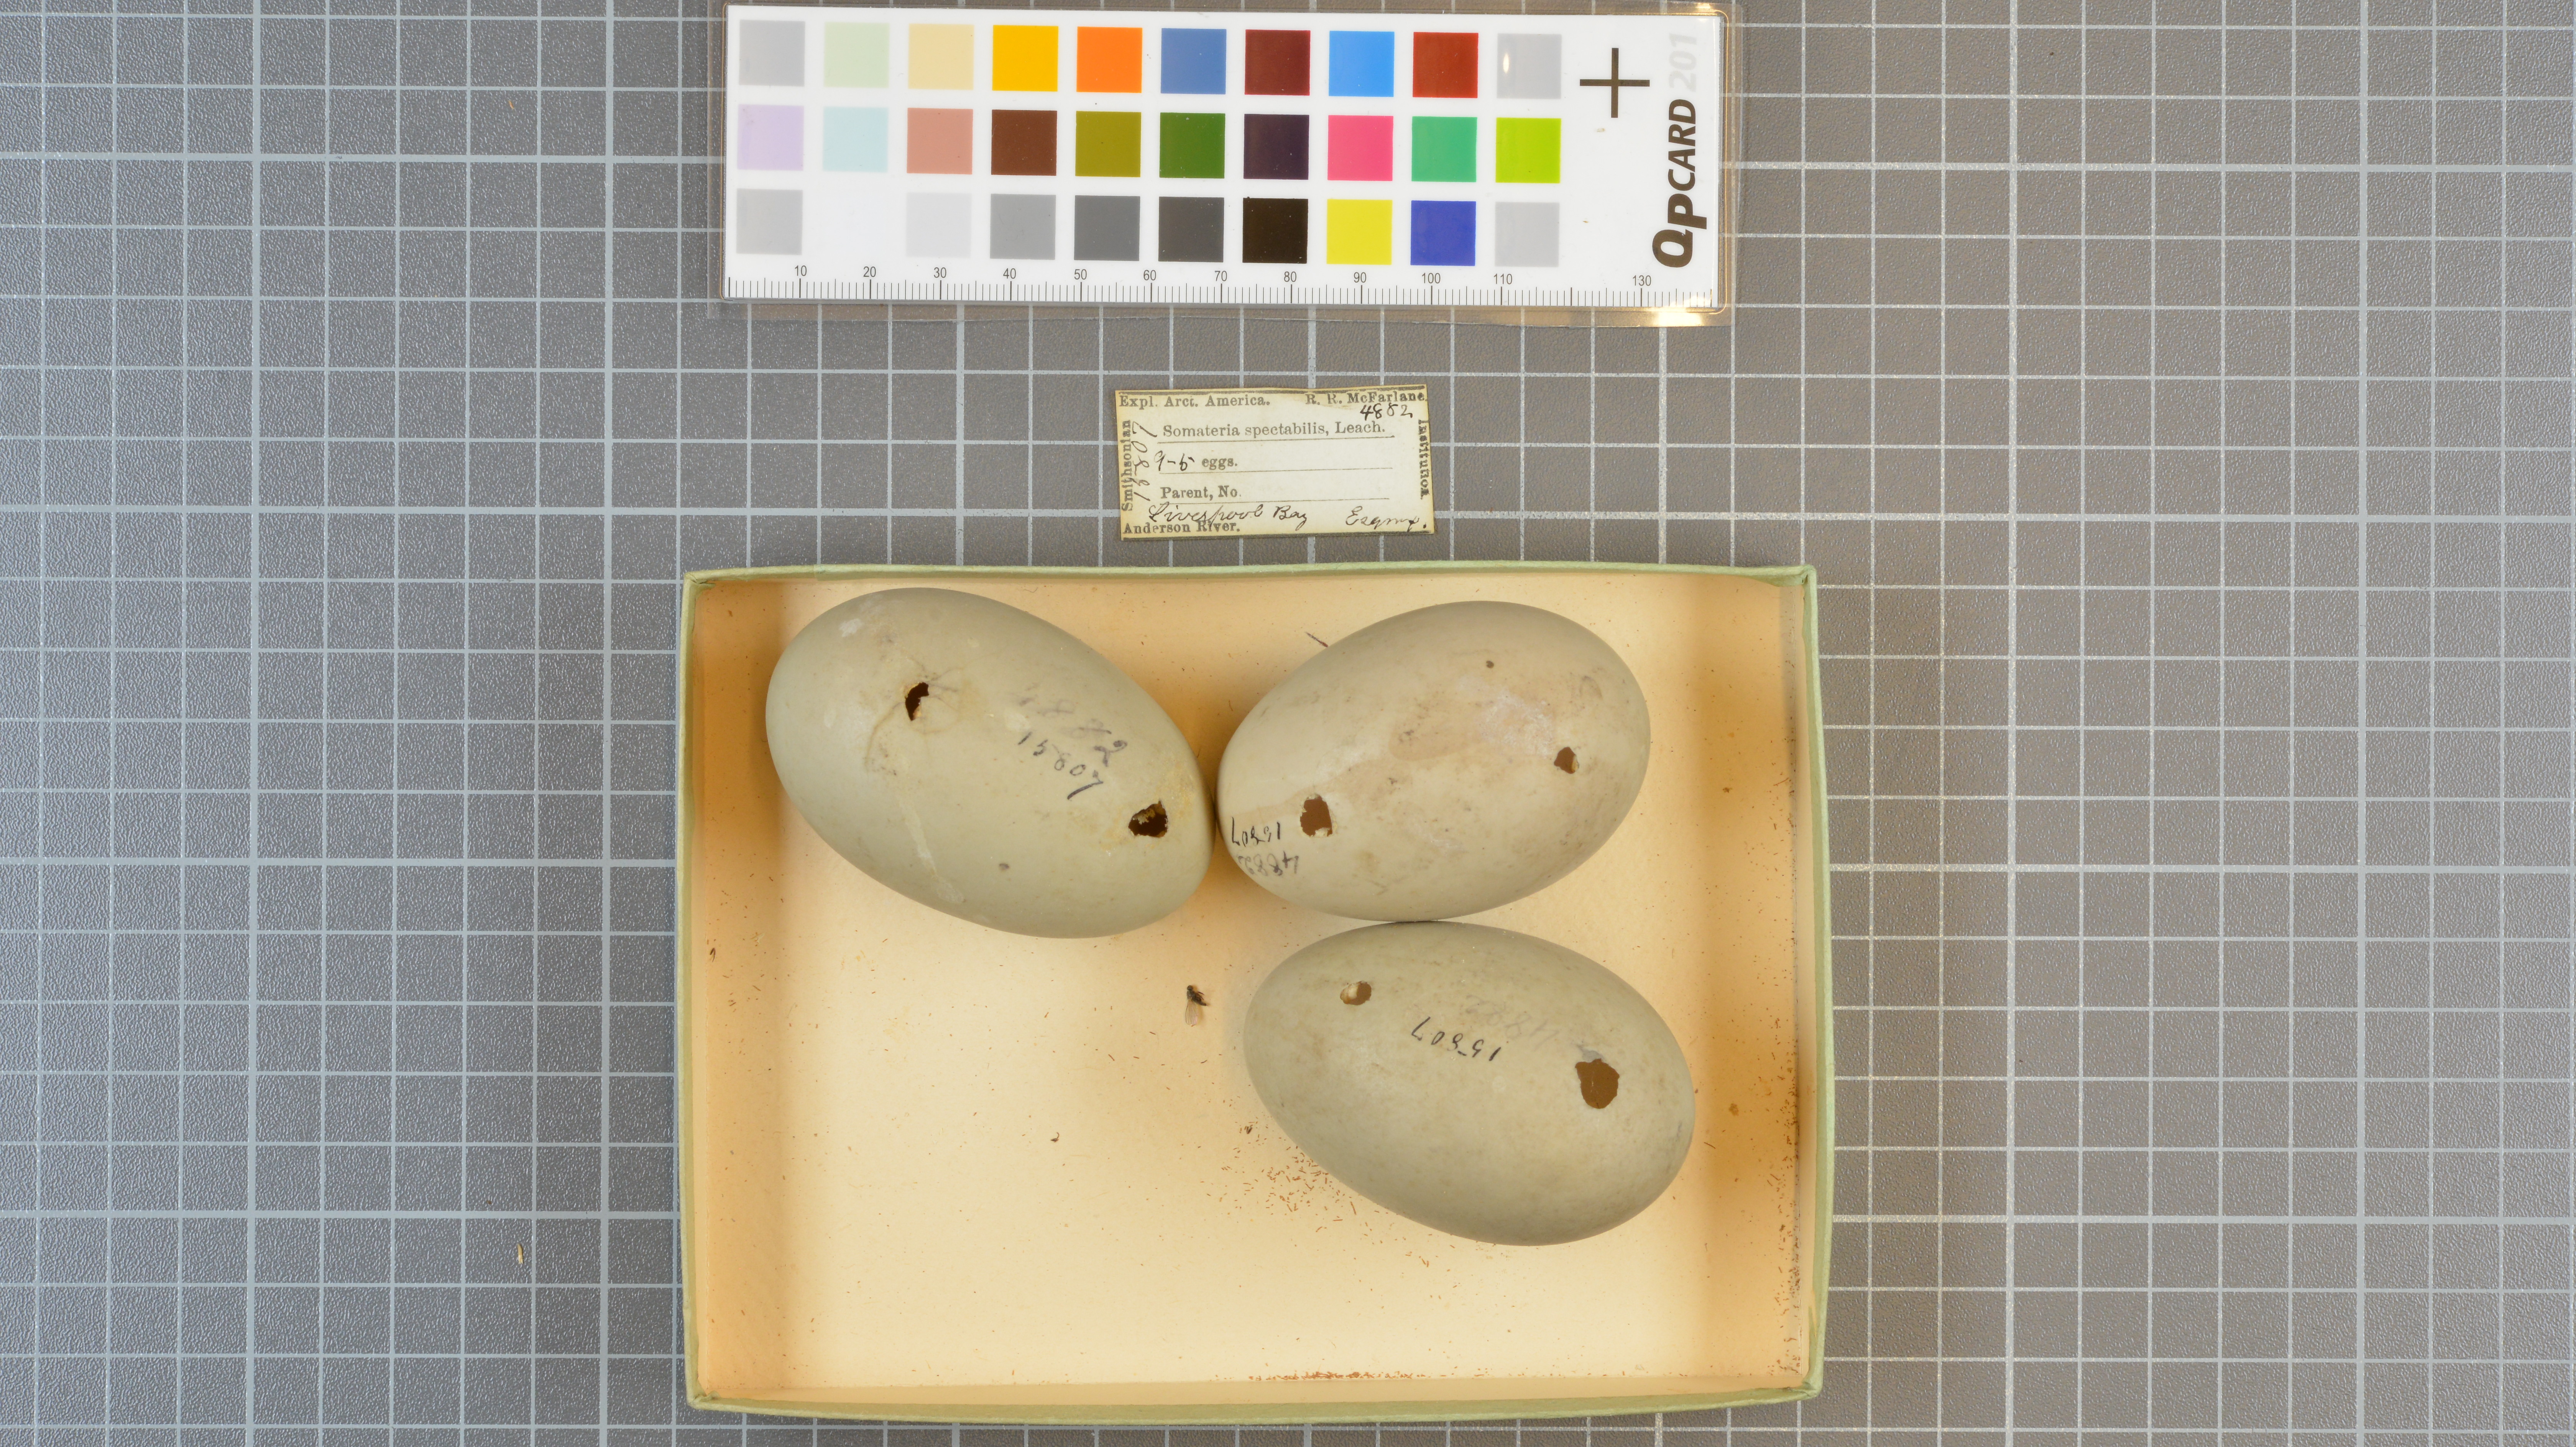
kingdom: Animalia
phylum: Chordata
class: Aves
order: Anseriformes
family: Anatidae
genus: Somateria
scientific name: Somateria spectabilis
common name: King eider
